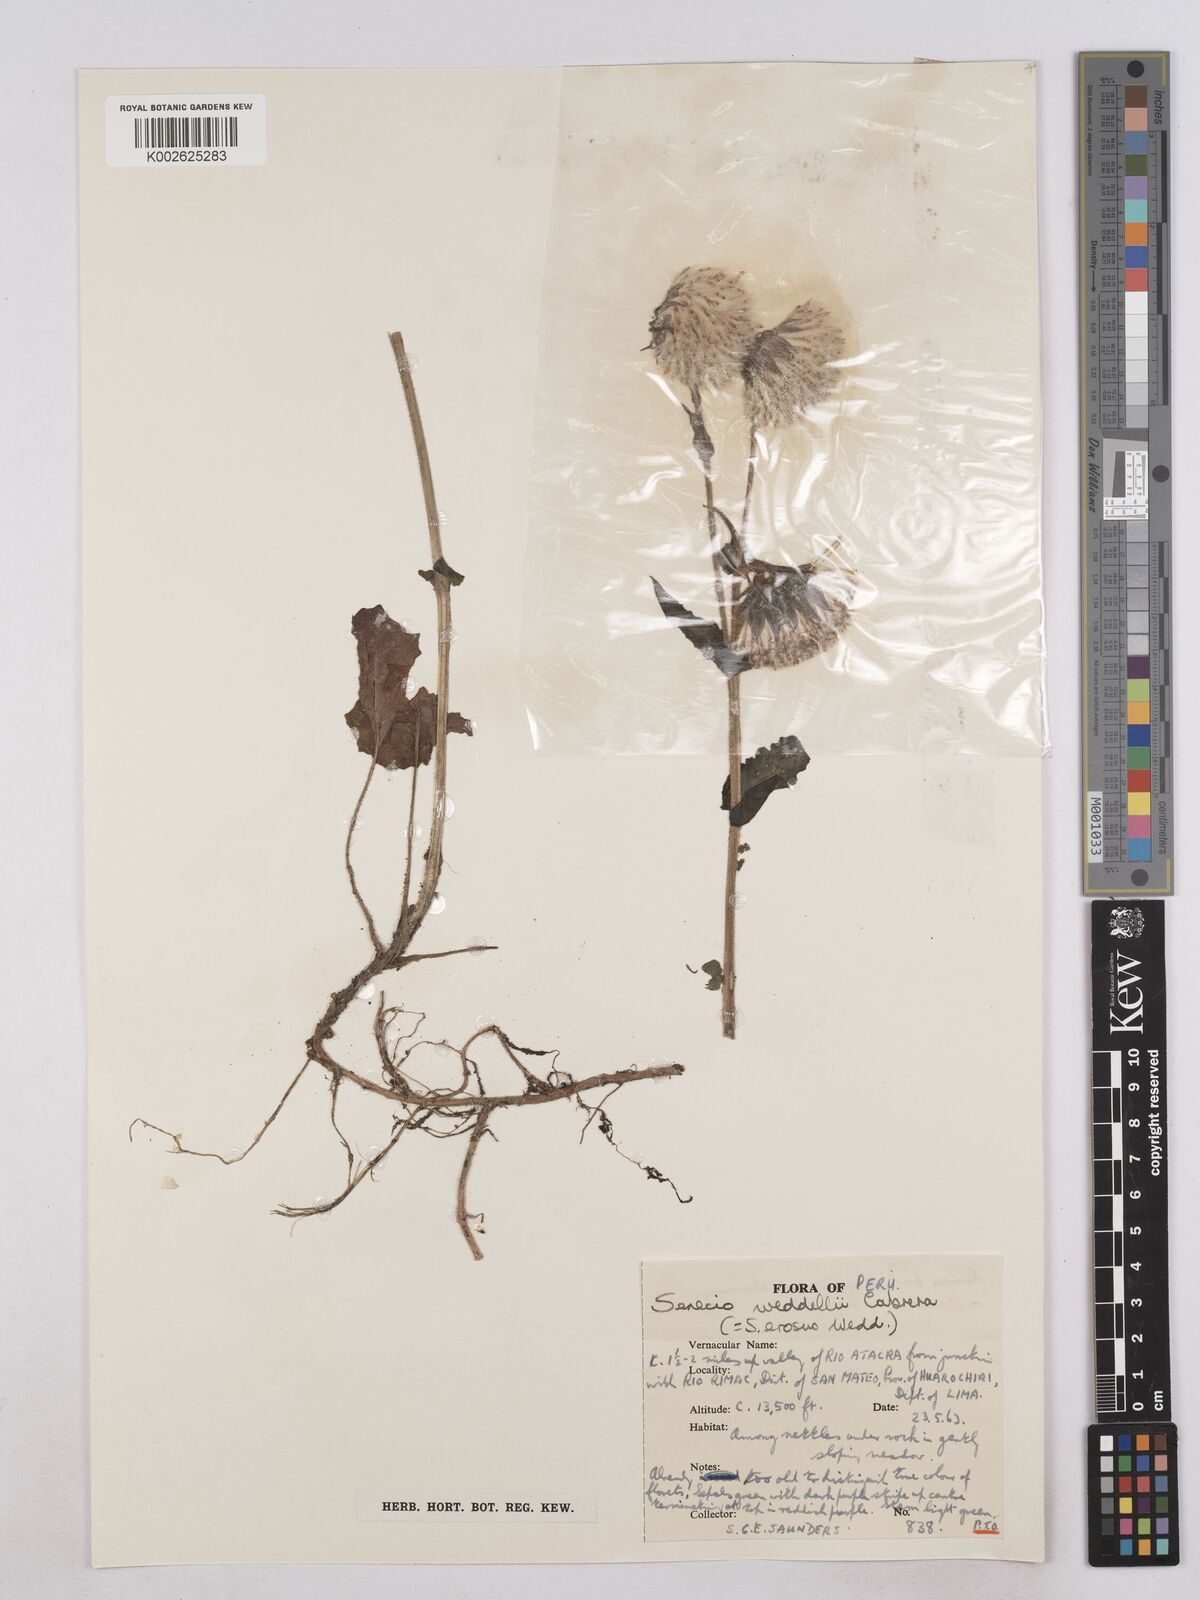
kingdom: Plantae
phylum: Tracheophyta
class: Magnoliopsida
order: Asterales
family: Asteraceae
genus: Senecio
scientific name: Senecio rhizomatus
